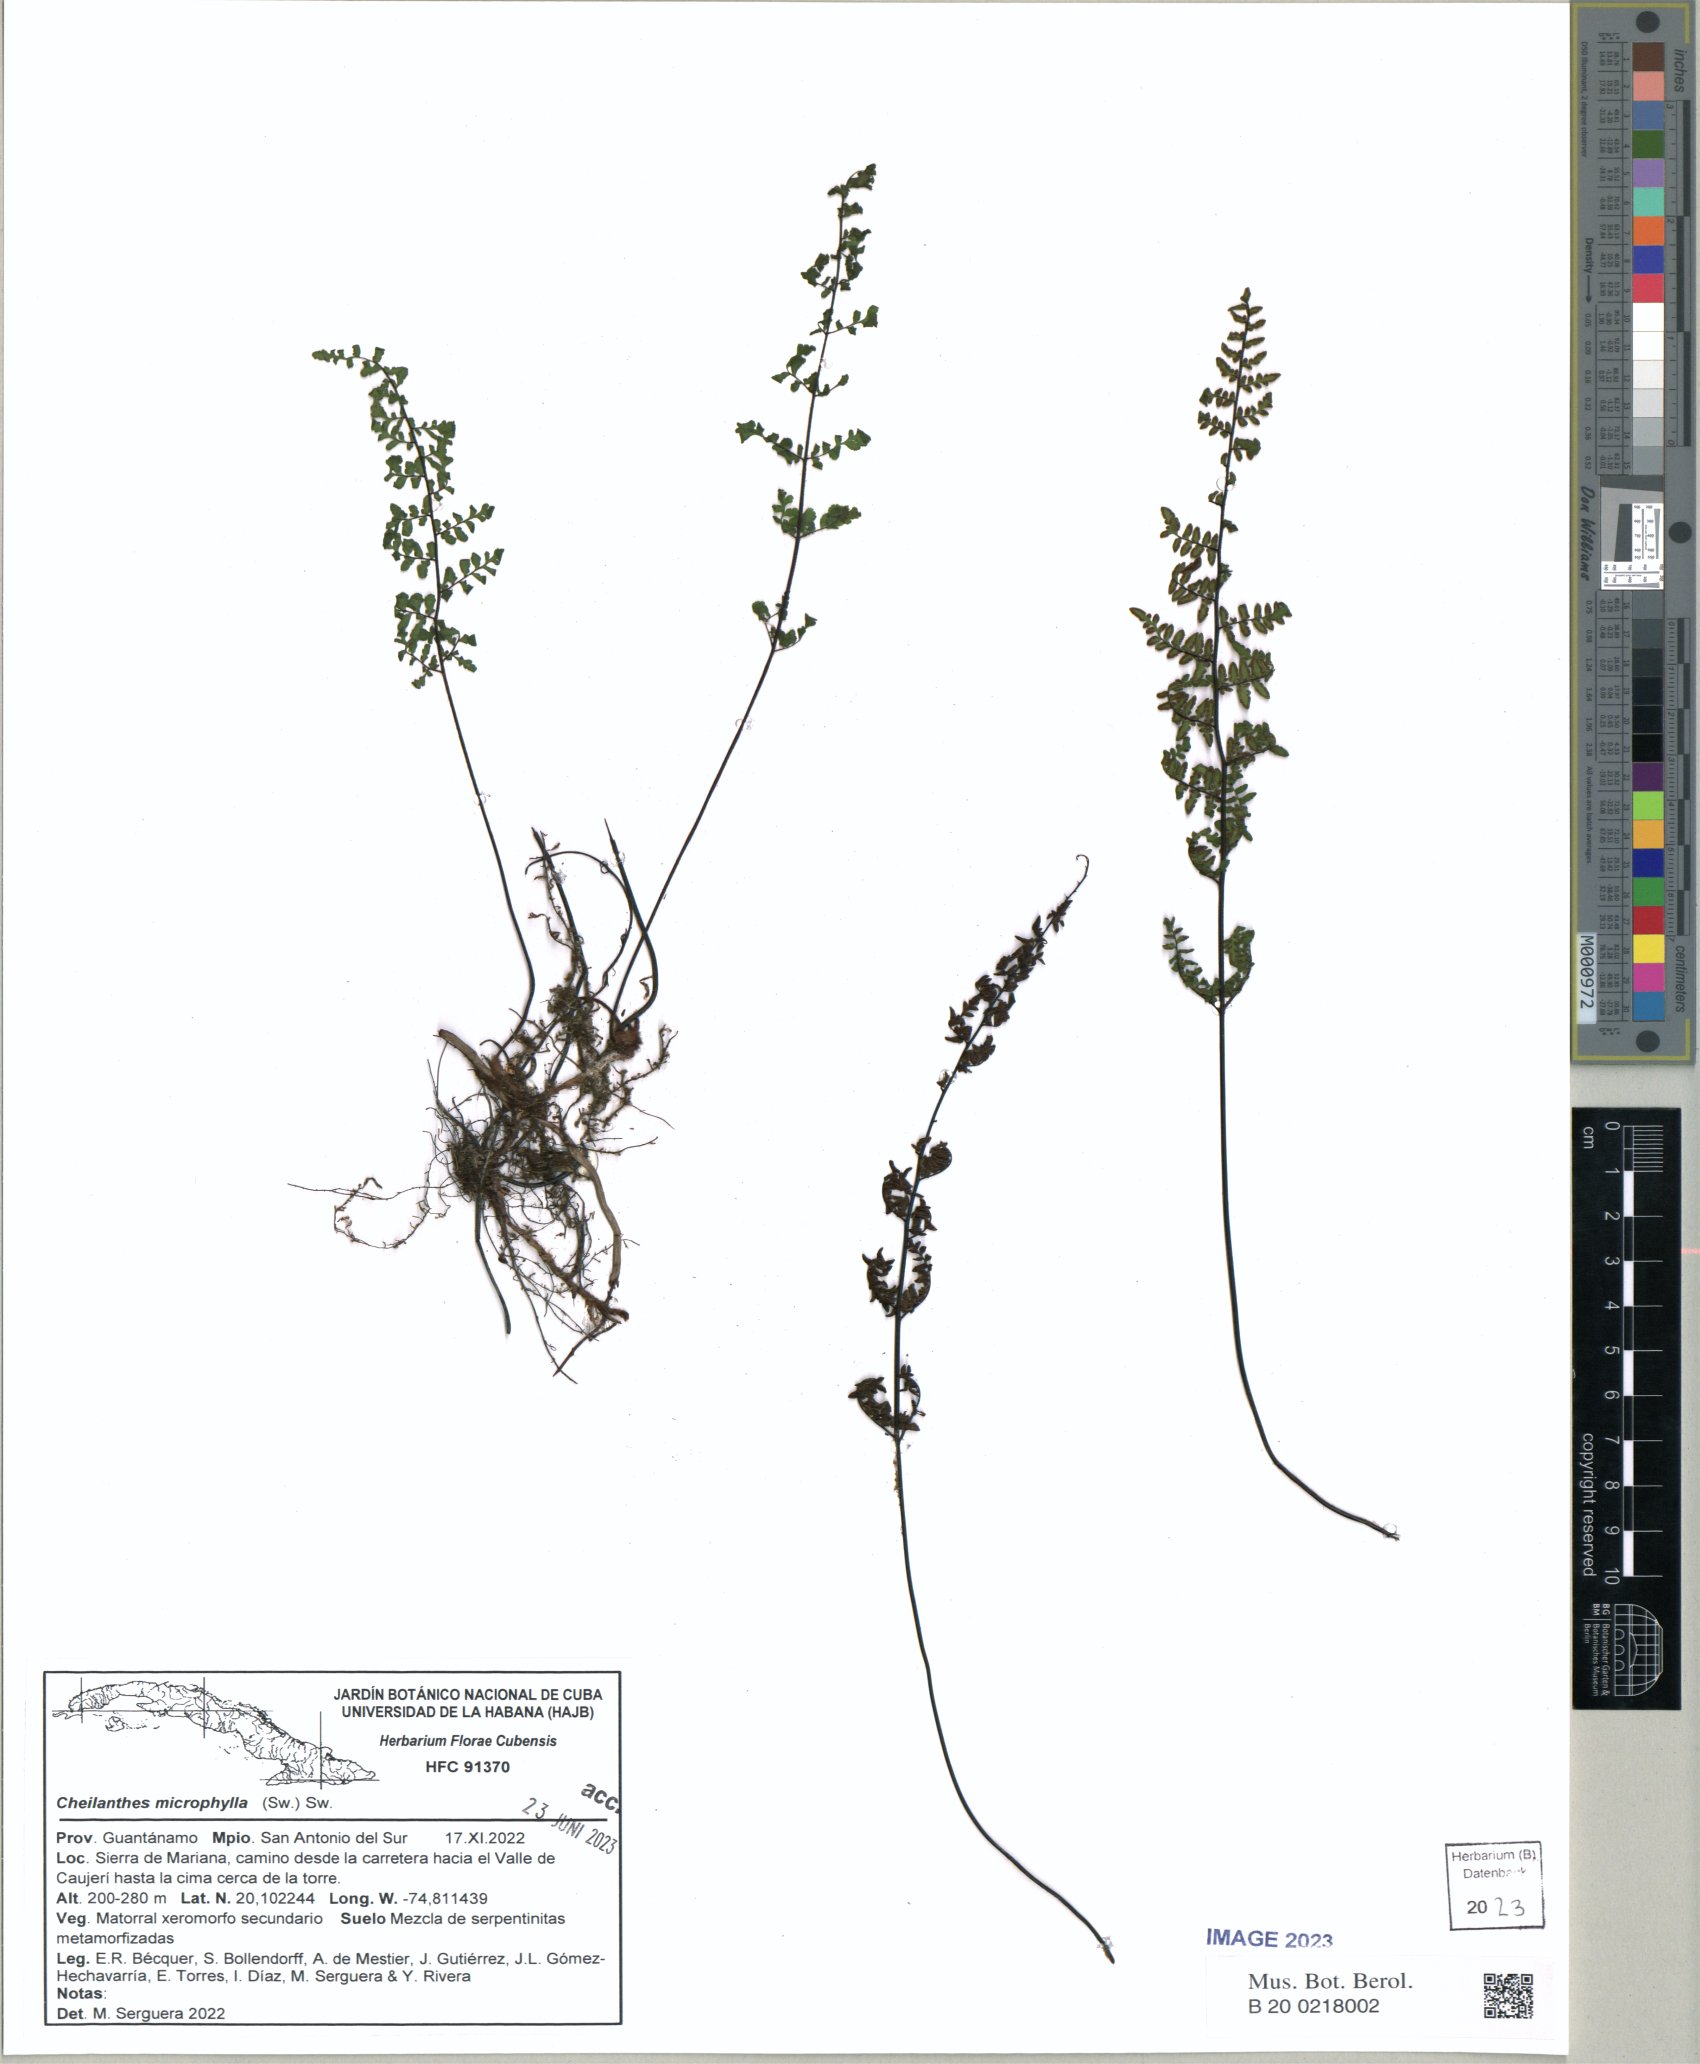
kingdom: Plantae
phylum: Tracheophyta
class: Polypodiopsida
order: Polypodiales
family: Pteridaceae
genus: Notholaena
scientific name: Notholaena trichomanoides
